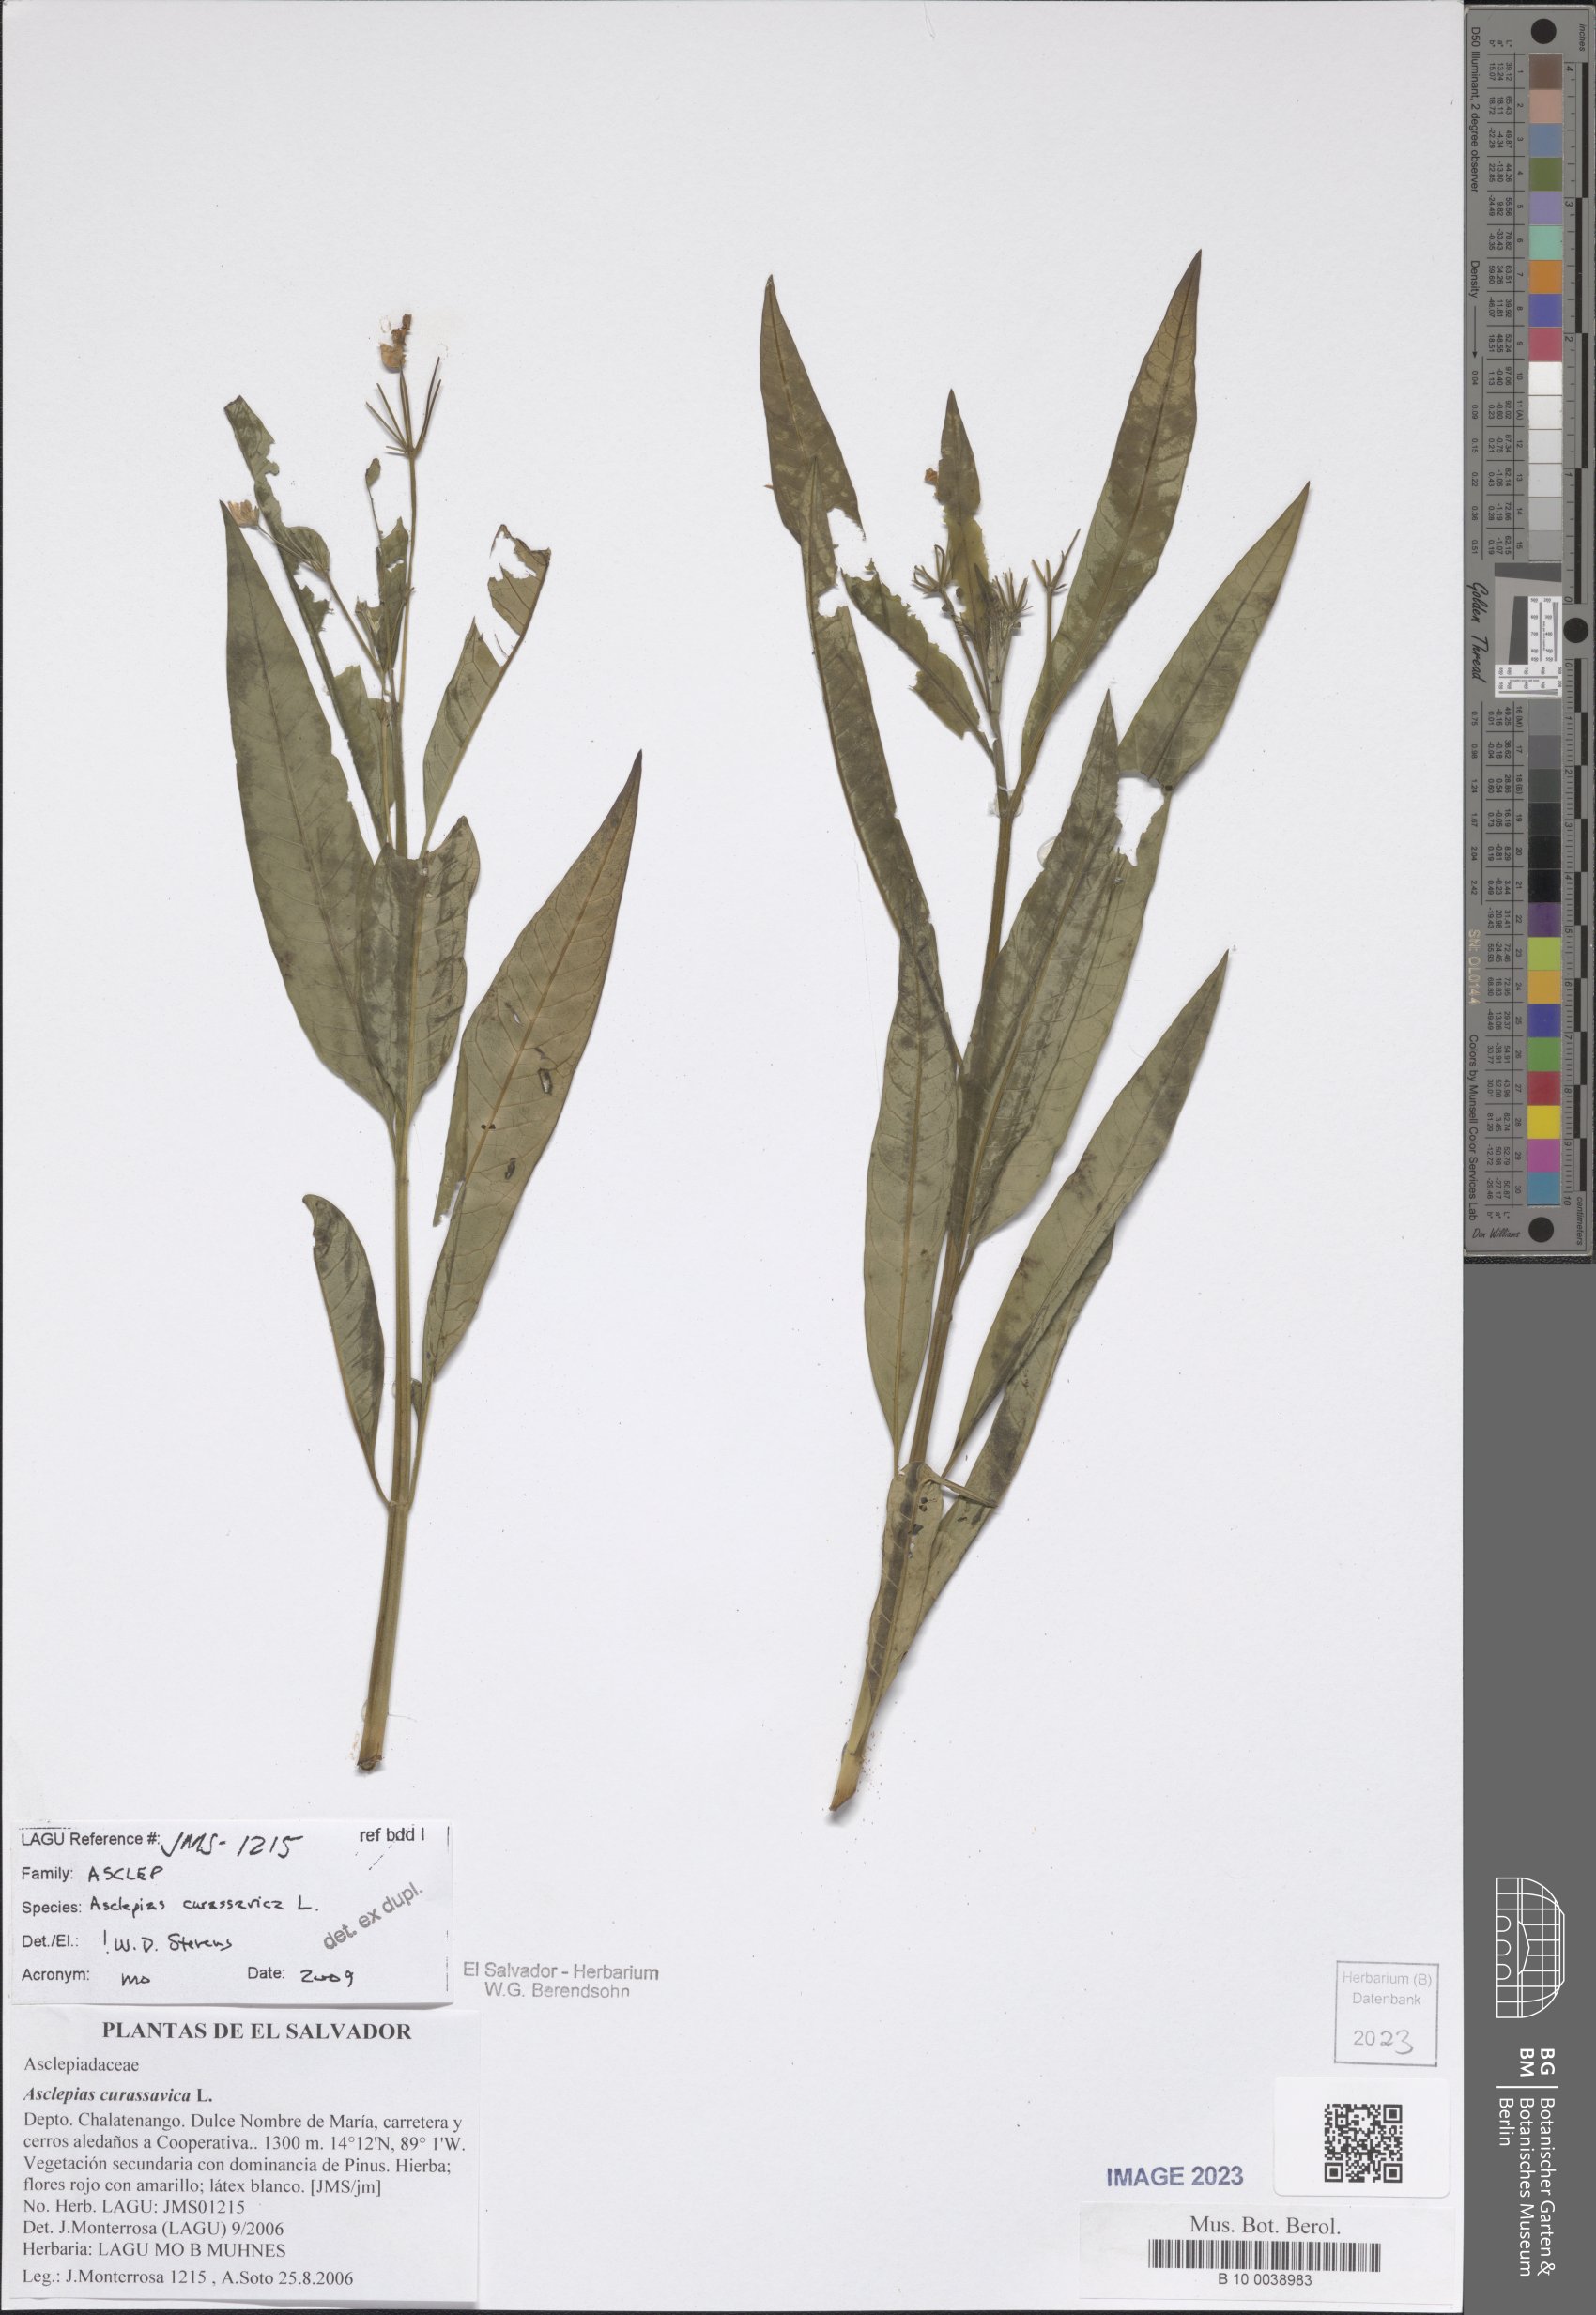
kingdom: Plantae
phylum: Tracheophyta
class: Magnoliopsida
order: Gentianales
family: Apocynaceae
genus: Asclepias
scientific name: Asclepias curassavica
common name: Bloodflower
